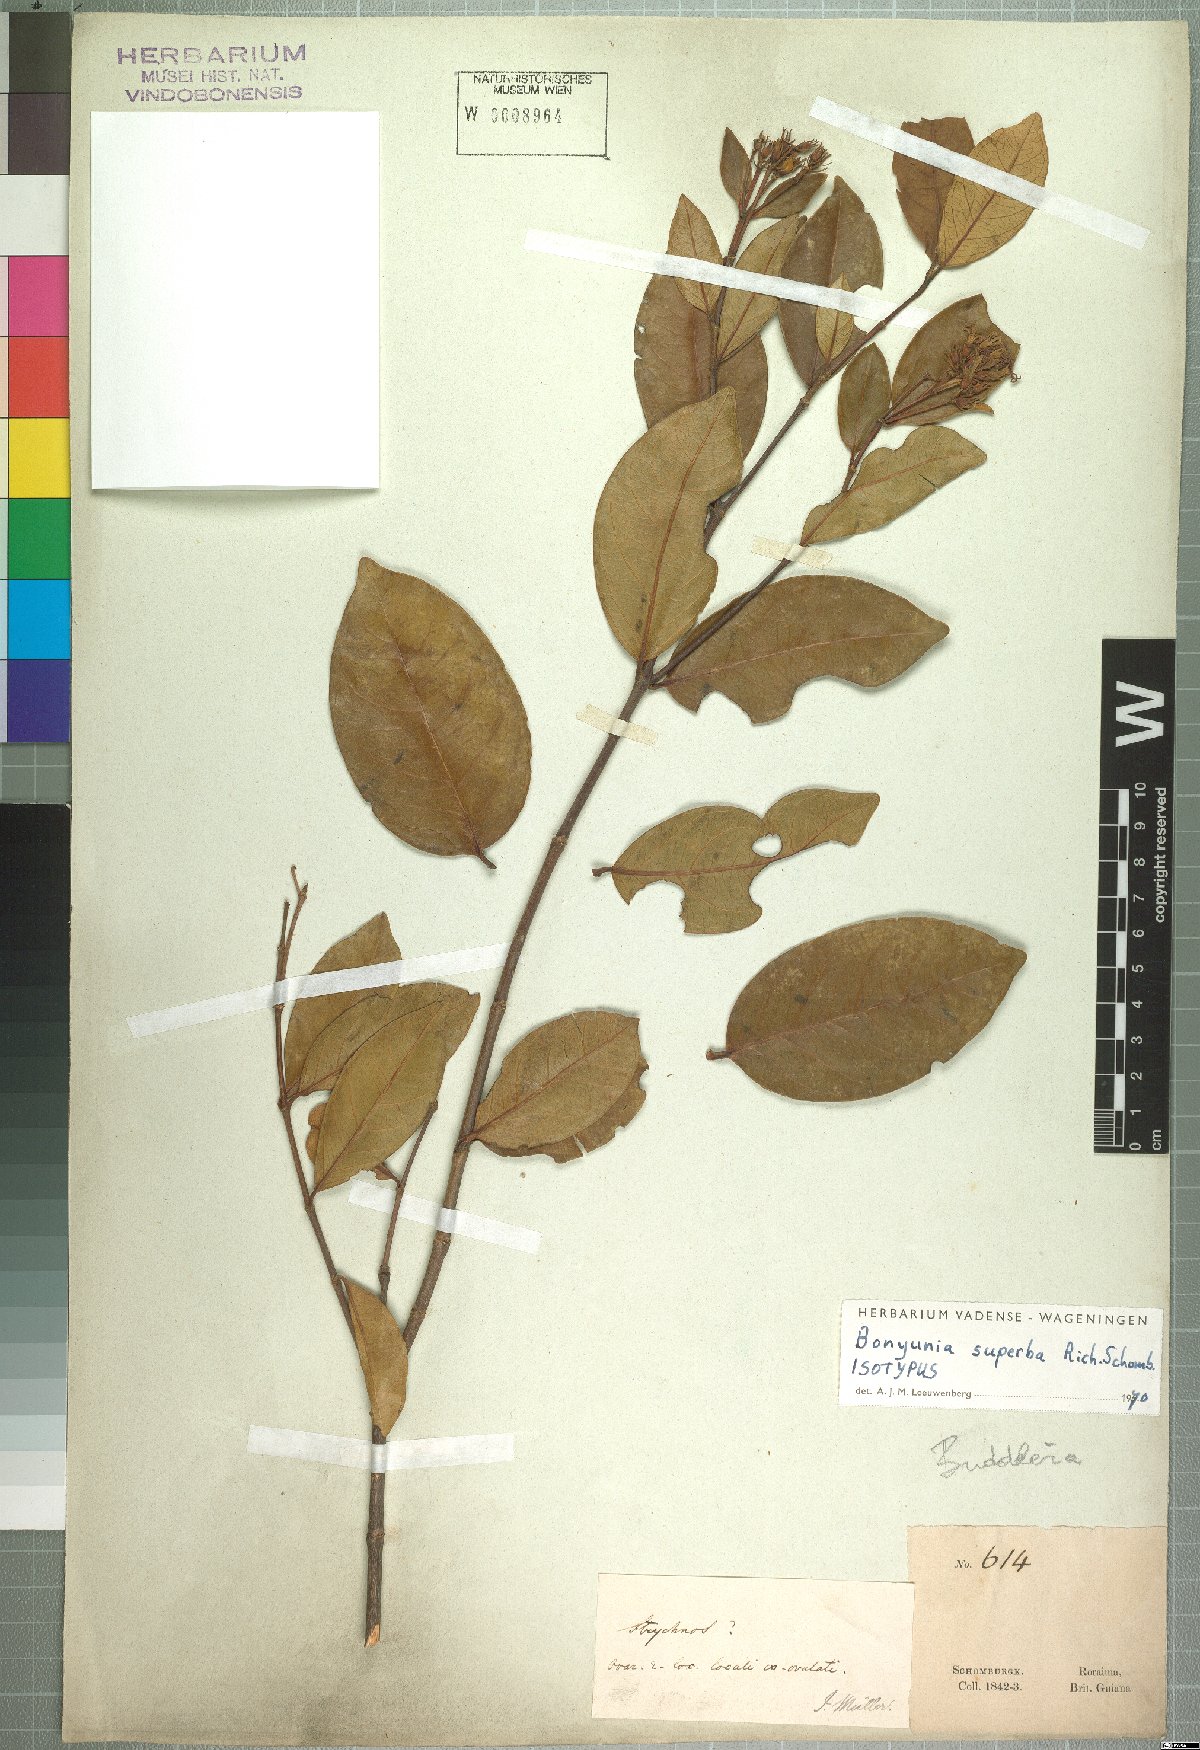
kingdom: Plantae
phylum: Tracheophyta
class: Magnoliopsida
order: Gentianales
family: Loganiaceae
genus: Bonyunia
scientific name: Bonyunia superba
